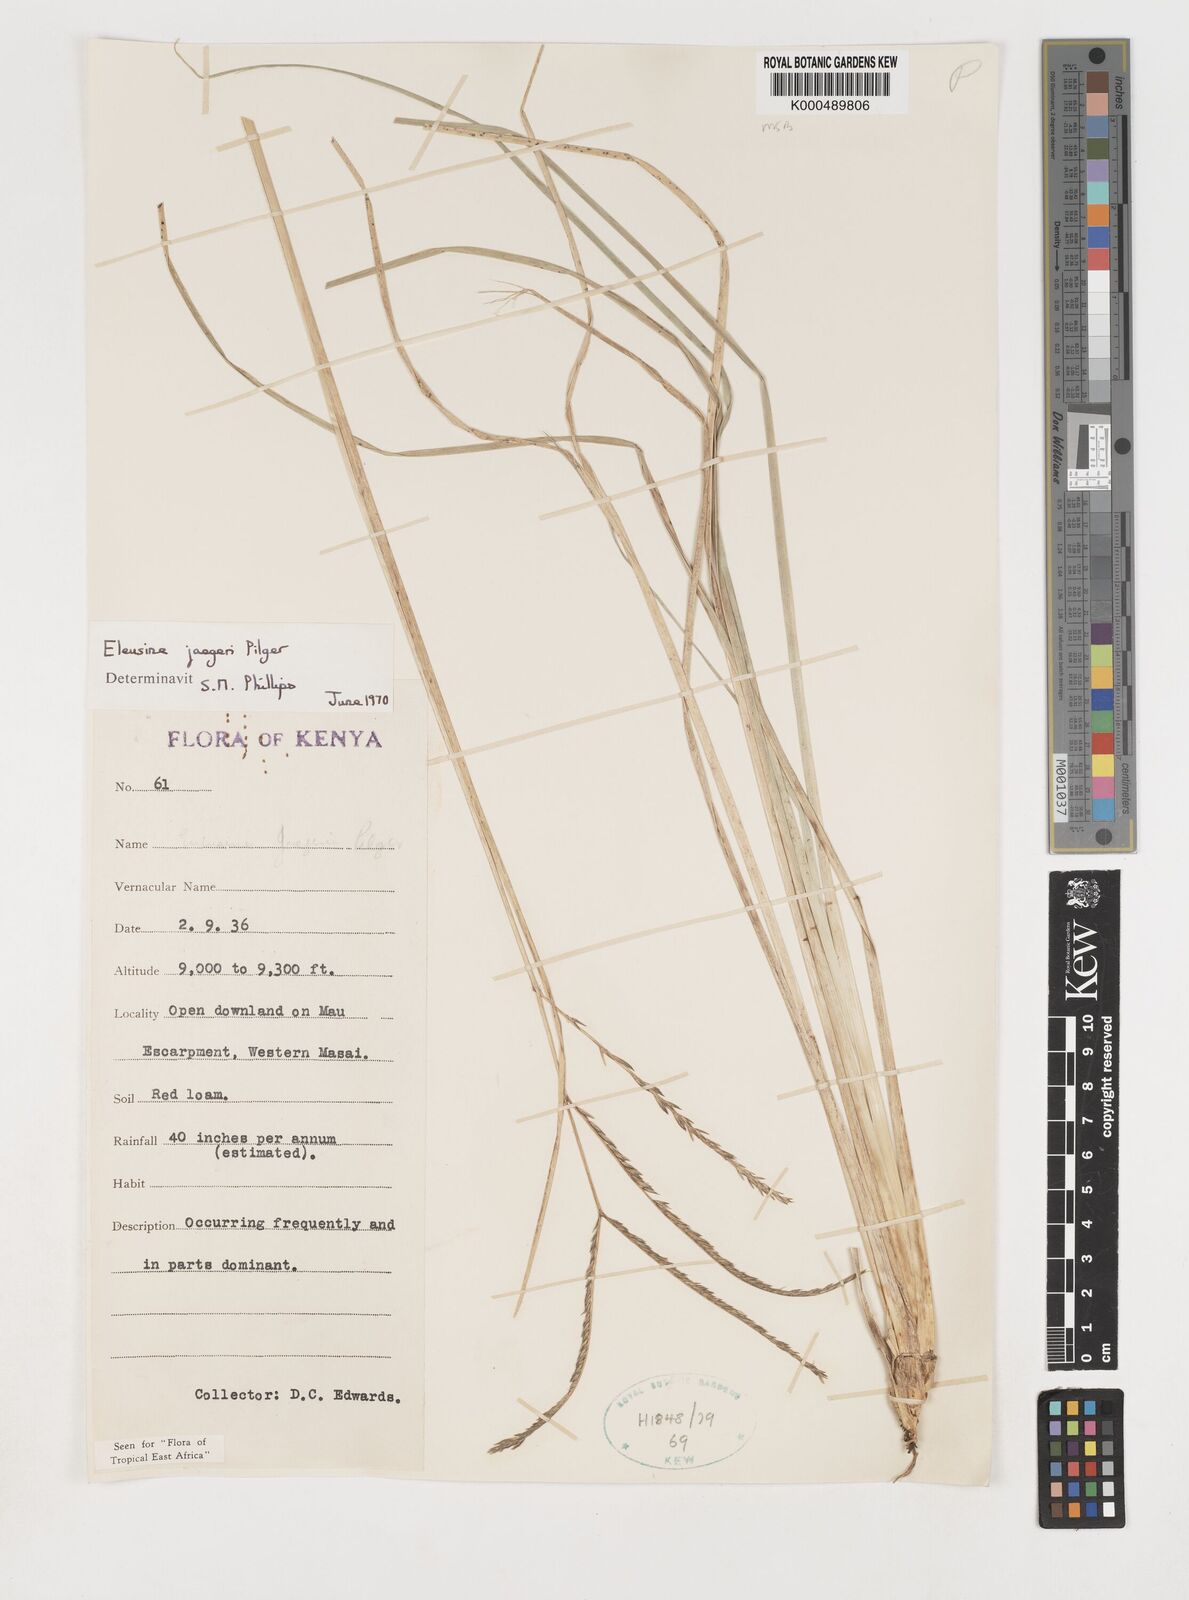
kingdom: Plantae
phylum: Tracheophyta
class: Liliopsida
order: Poales
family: Poaceae
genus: Eleusine
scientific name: Eleusine jaegeri
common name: Manyatta grass
